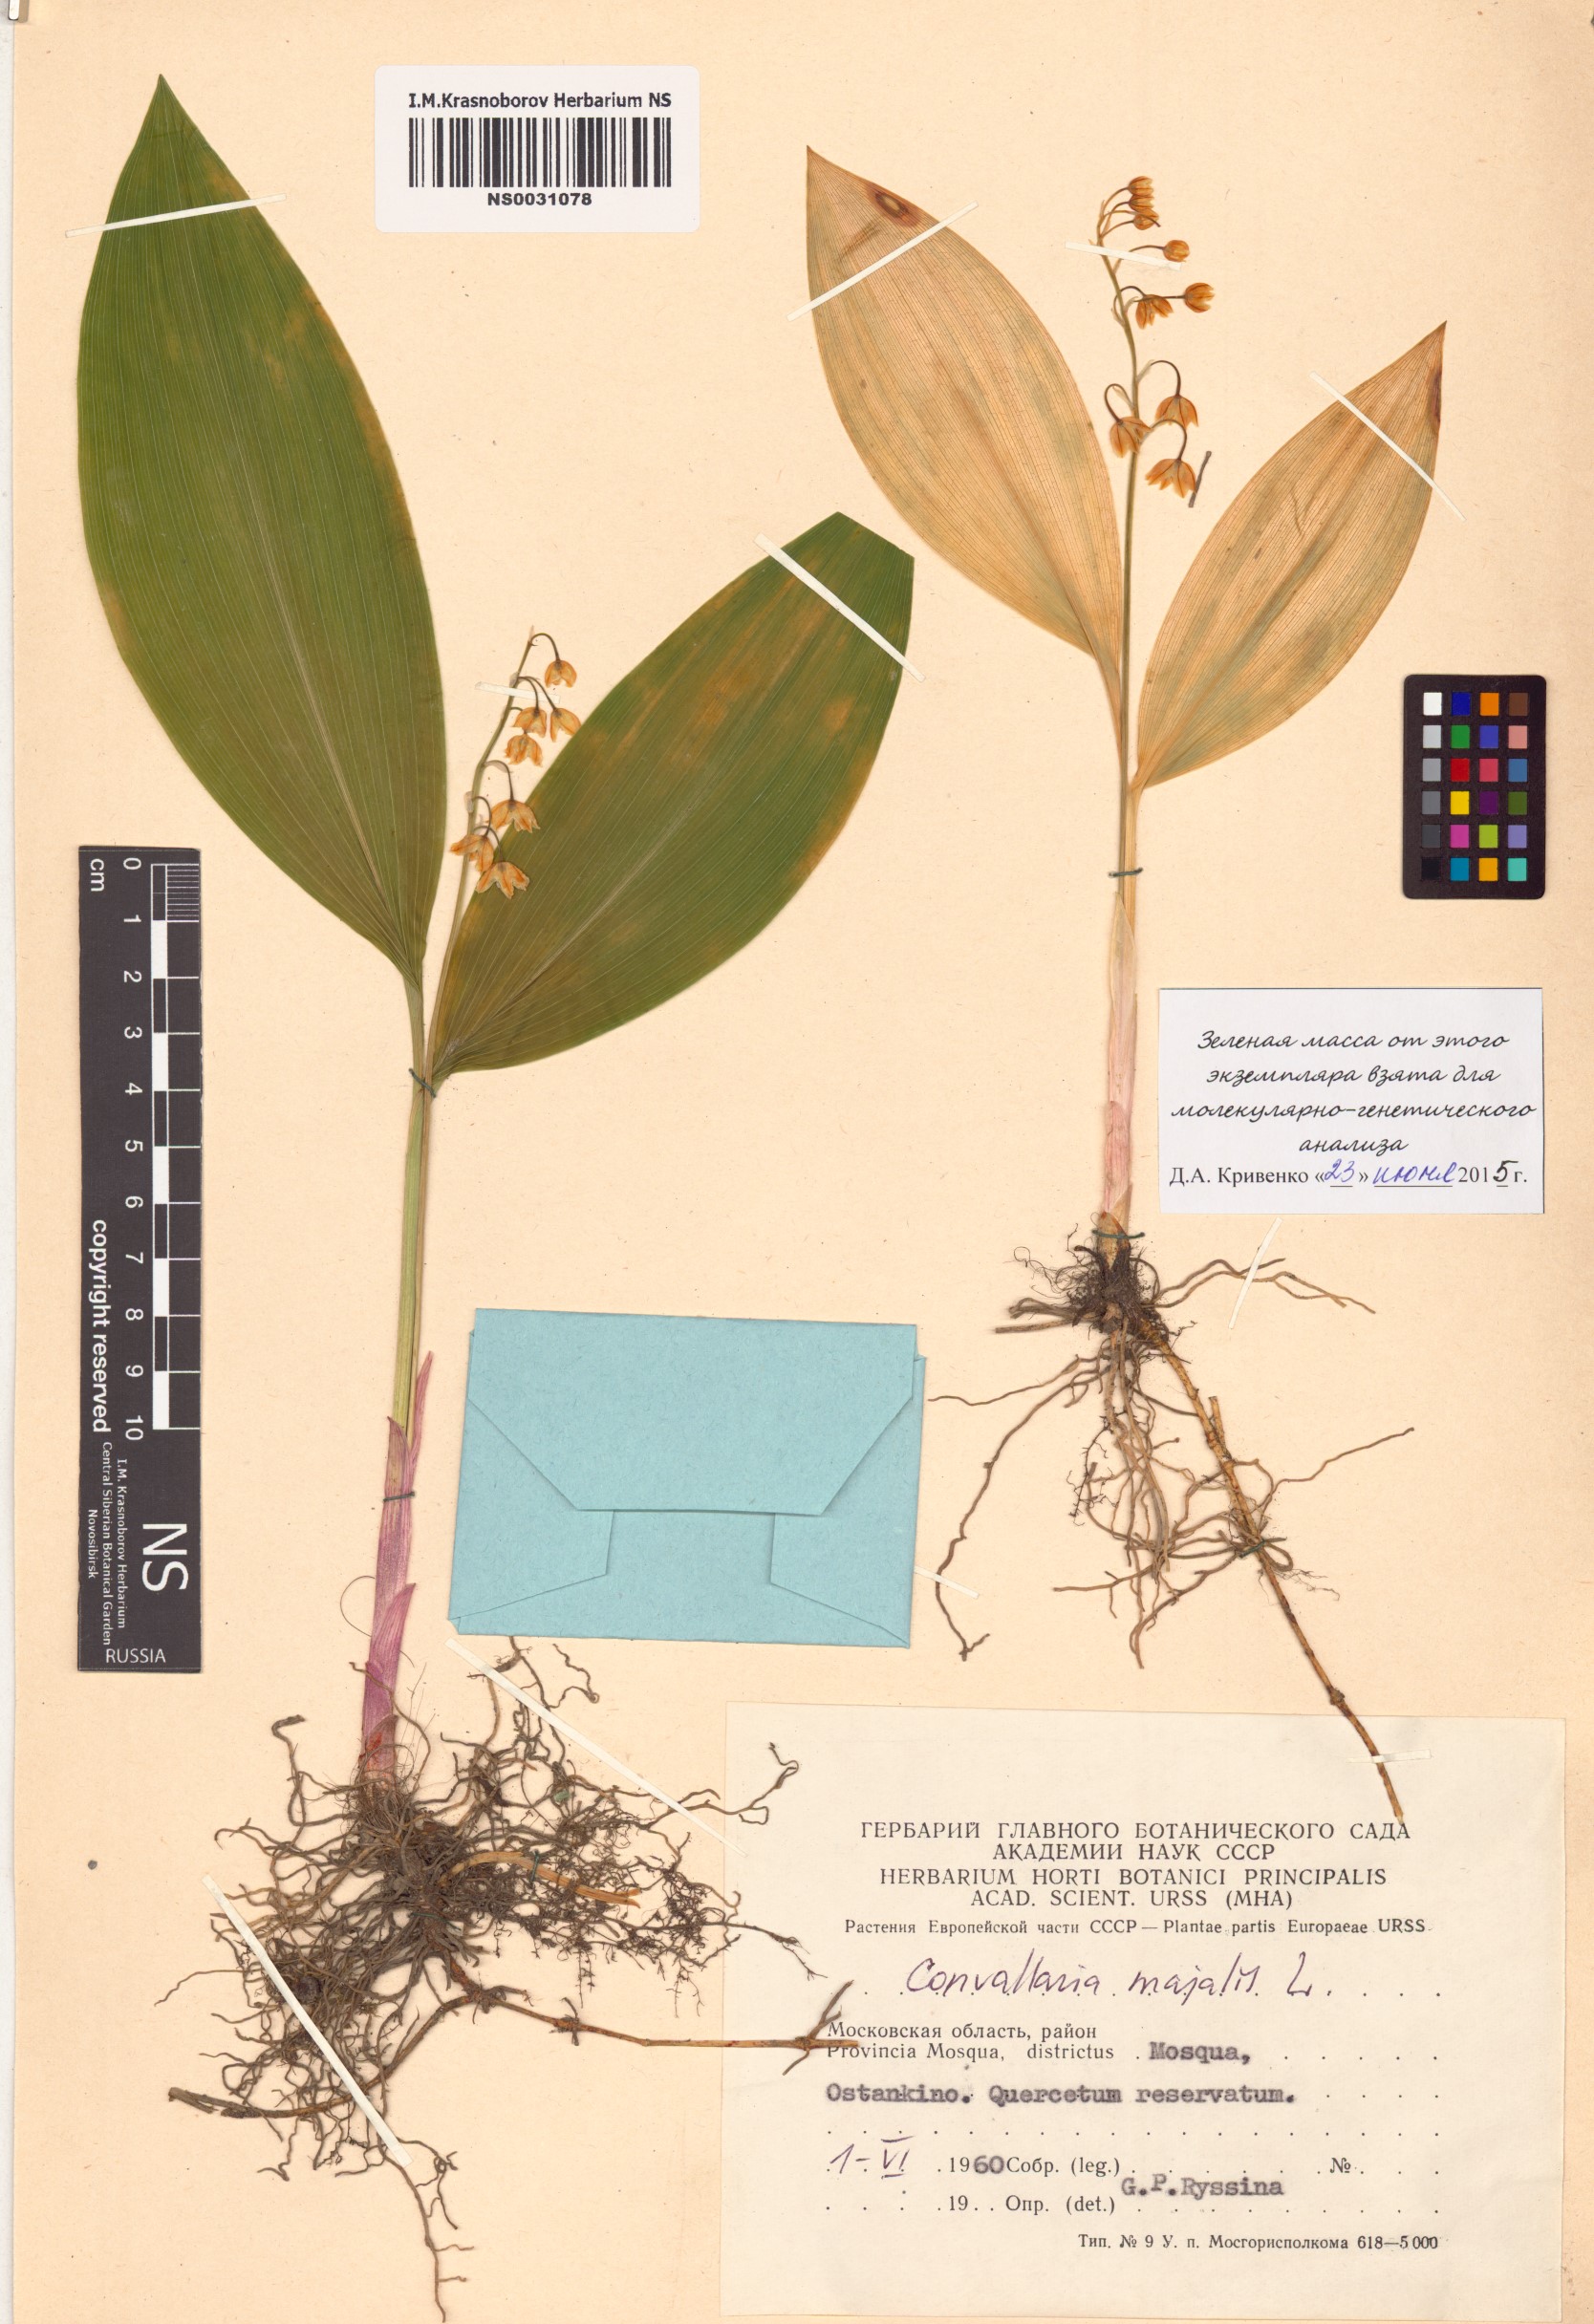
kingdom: Plantae
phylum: Tracheophyta
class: Liliopsida
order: Asparagales
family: Asparagaceae
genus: Convallaria
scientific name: Convallaria majalis
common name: Lily-of-the-valley
